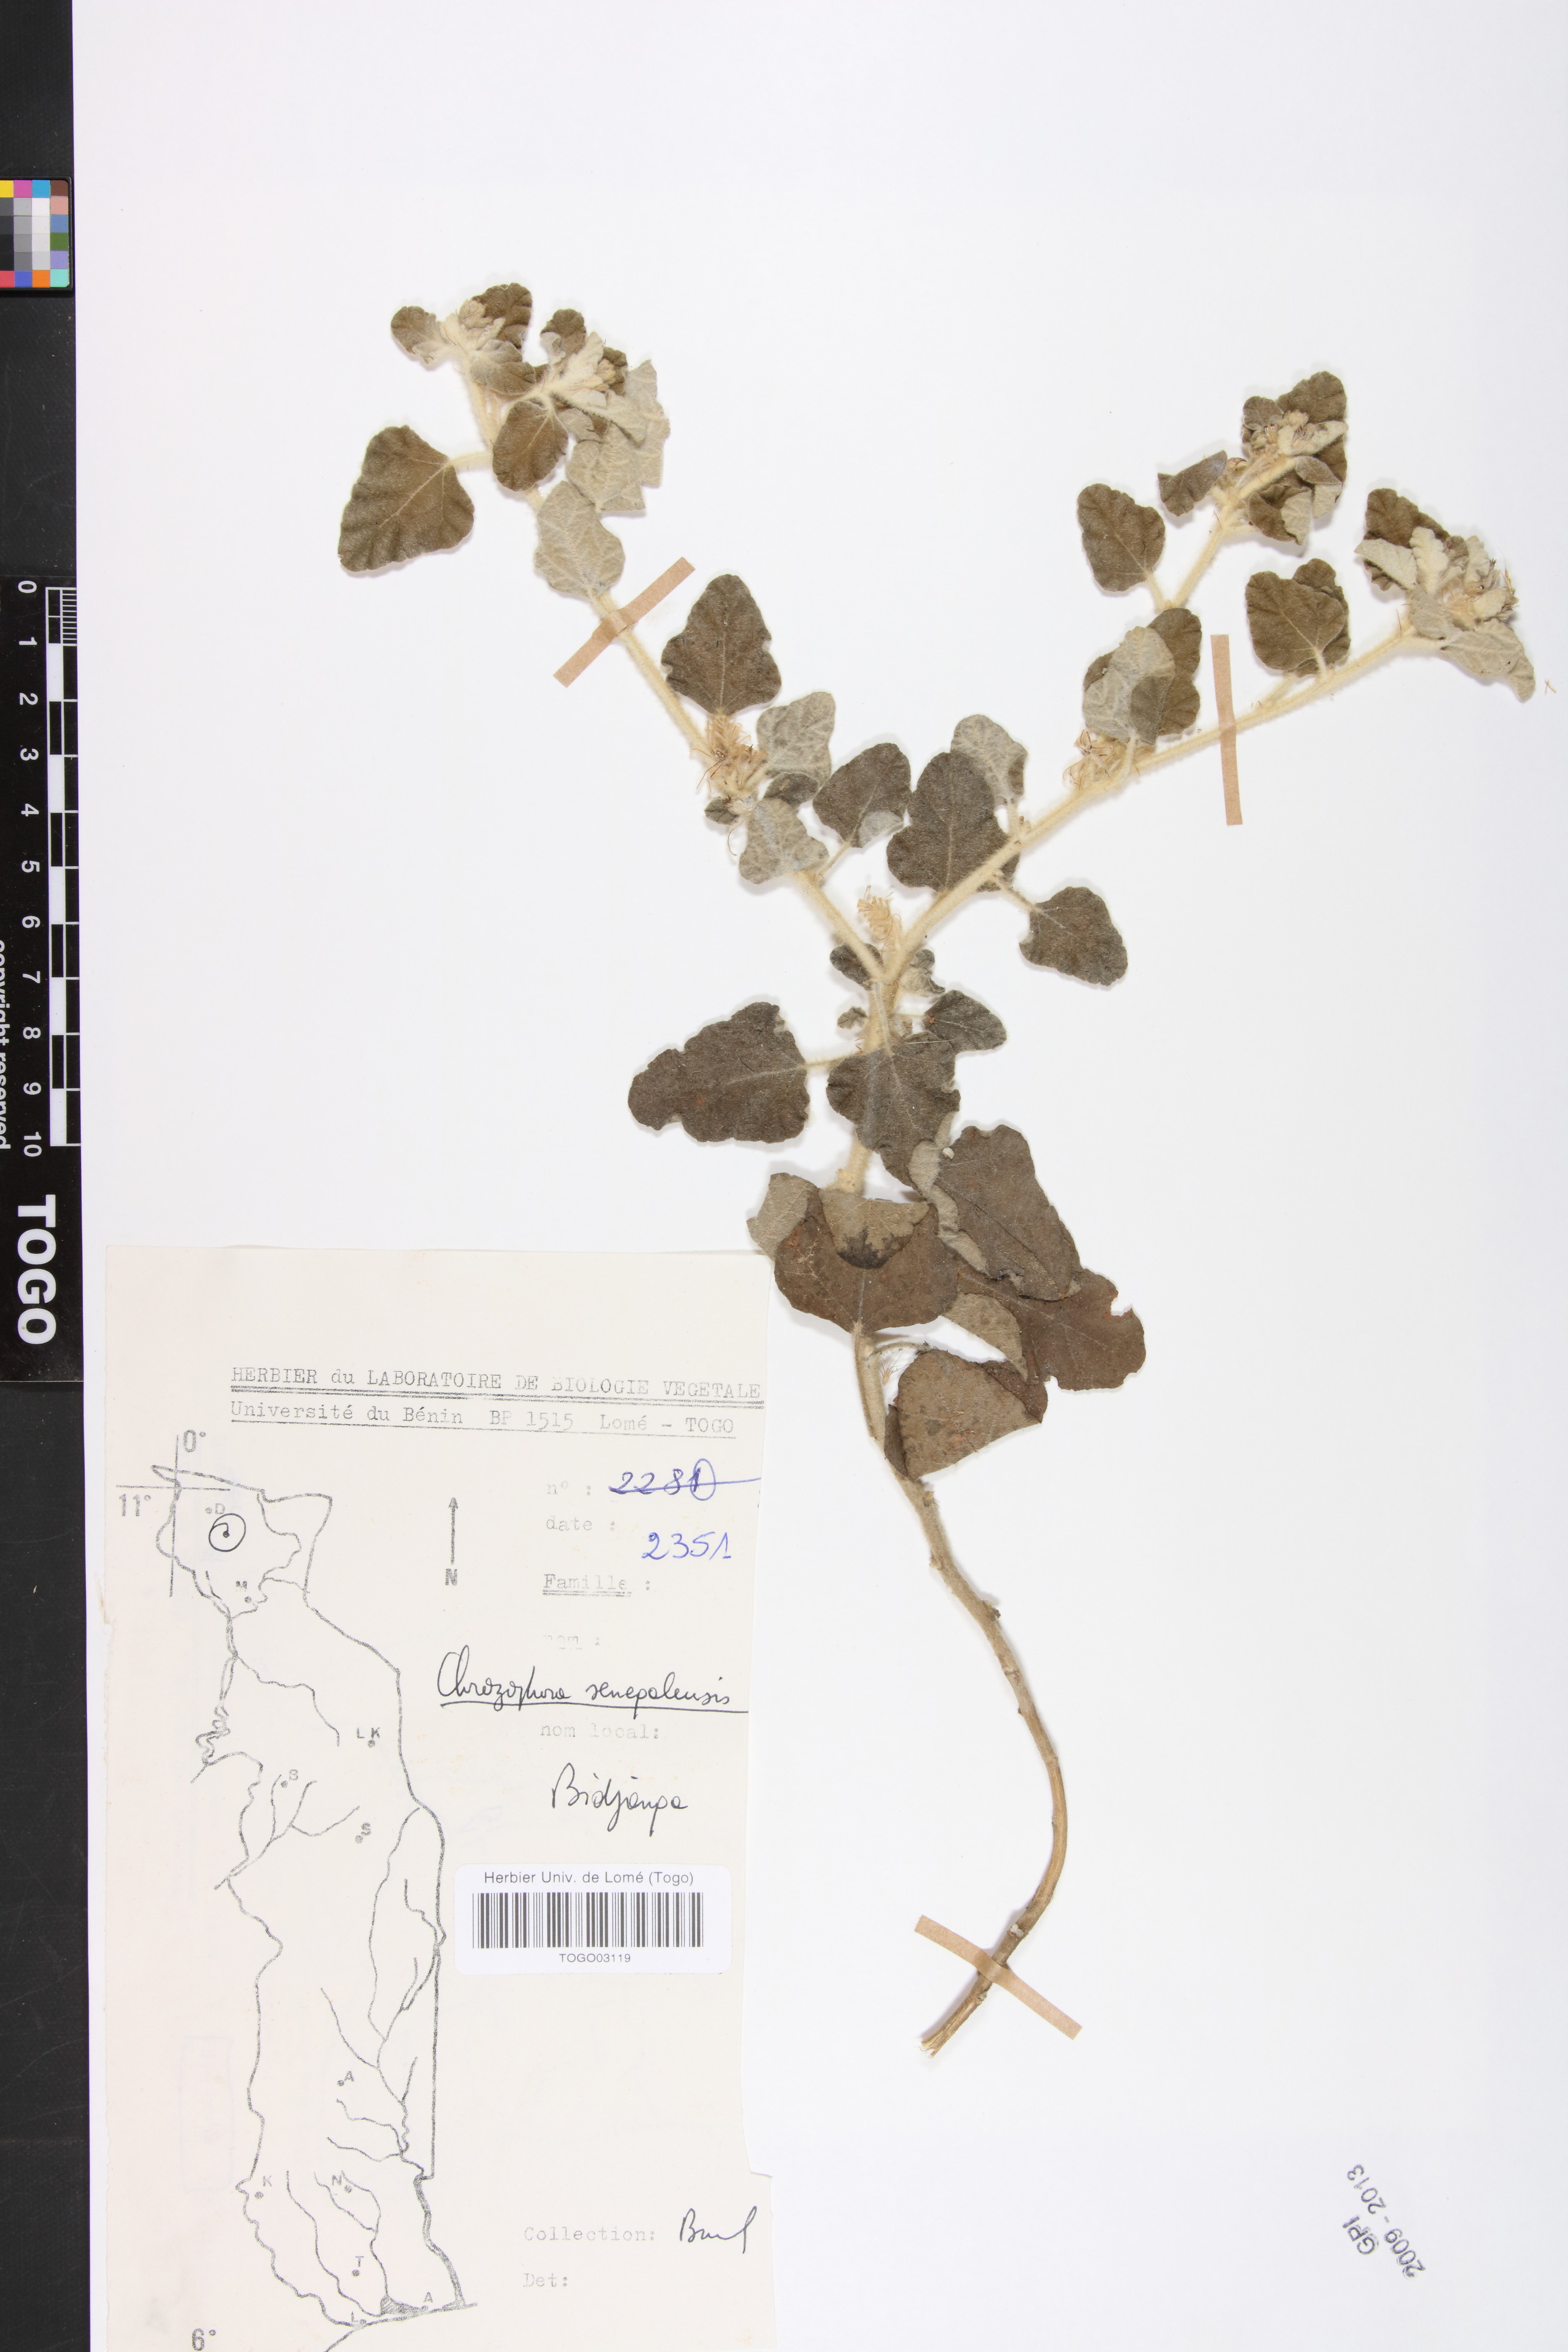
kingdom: Plantae
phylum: Tracheophyta
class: Magnoliopsida
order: Malpighiales
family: Euphorbiaceae
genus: Chrozophora
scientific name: Chrozophora senegalensis
